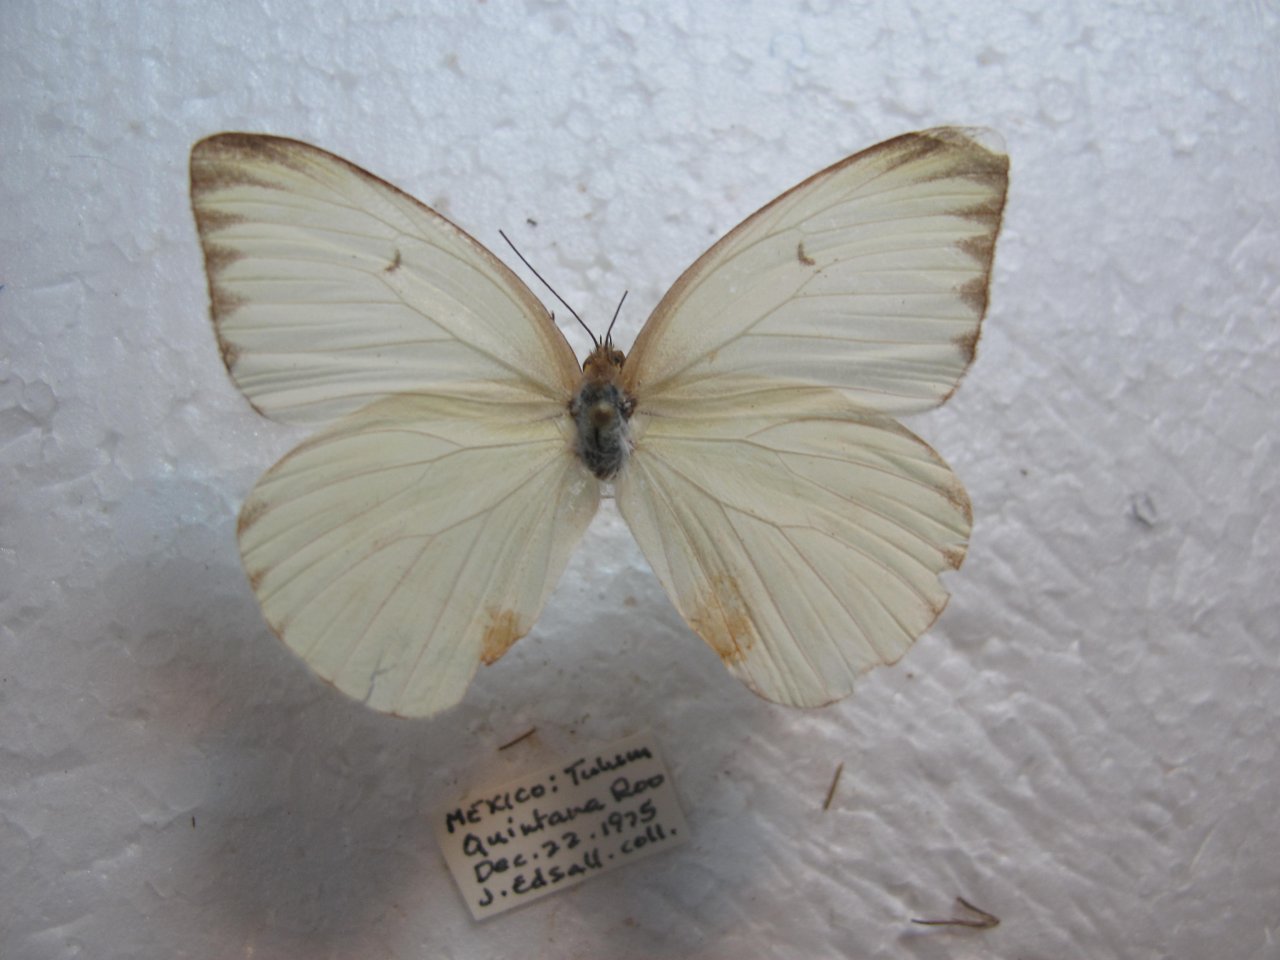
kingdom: Animalia
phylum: Arthropoda
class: Insecta
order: Lepidoptera
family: Pieridae
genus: Ascia
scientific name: Ascia monuste
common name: Great Southern White
